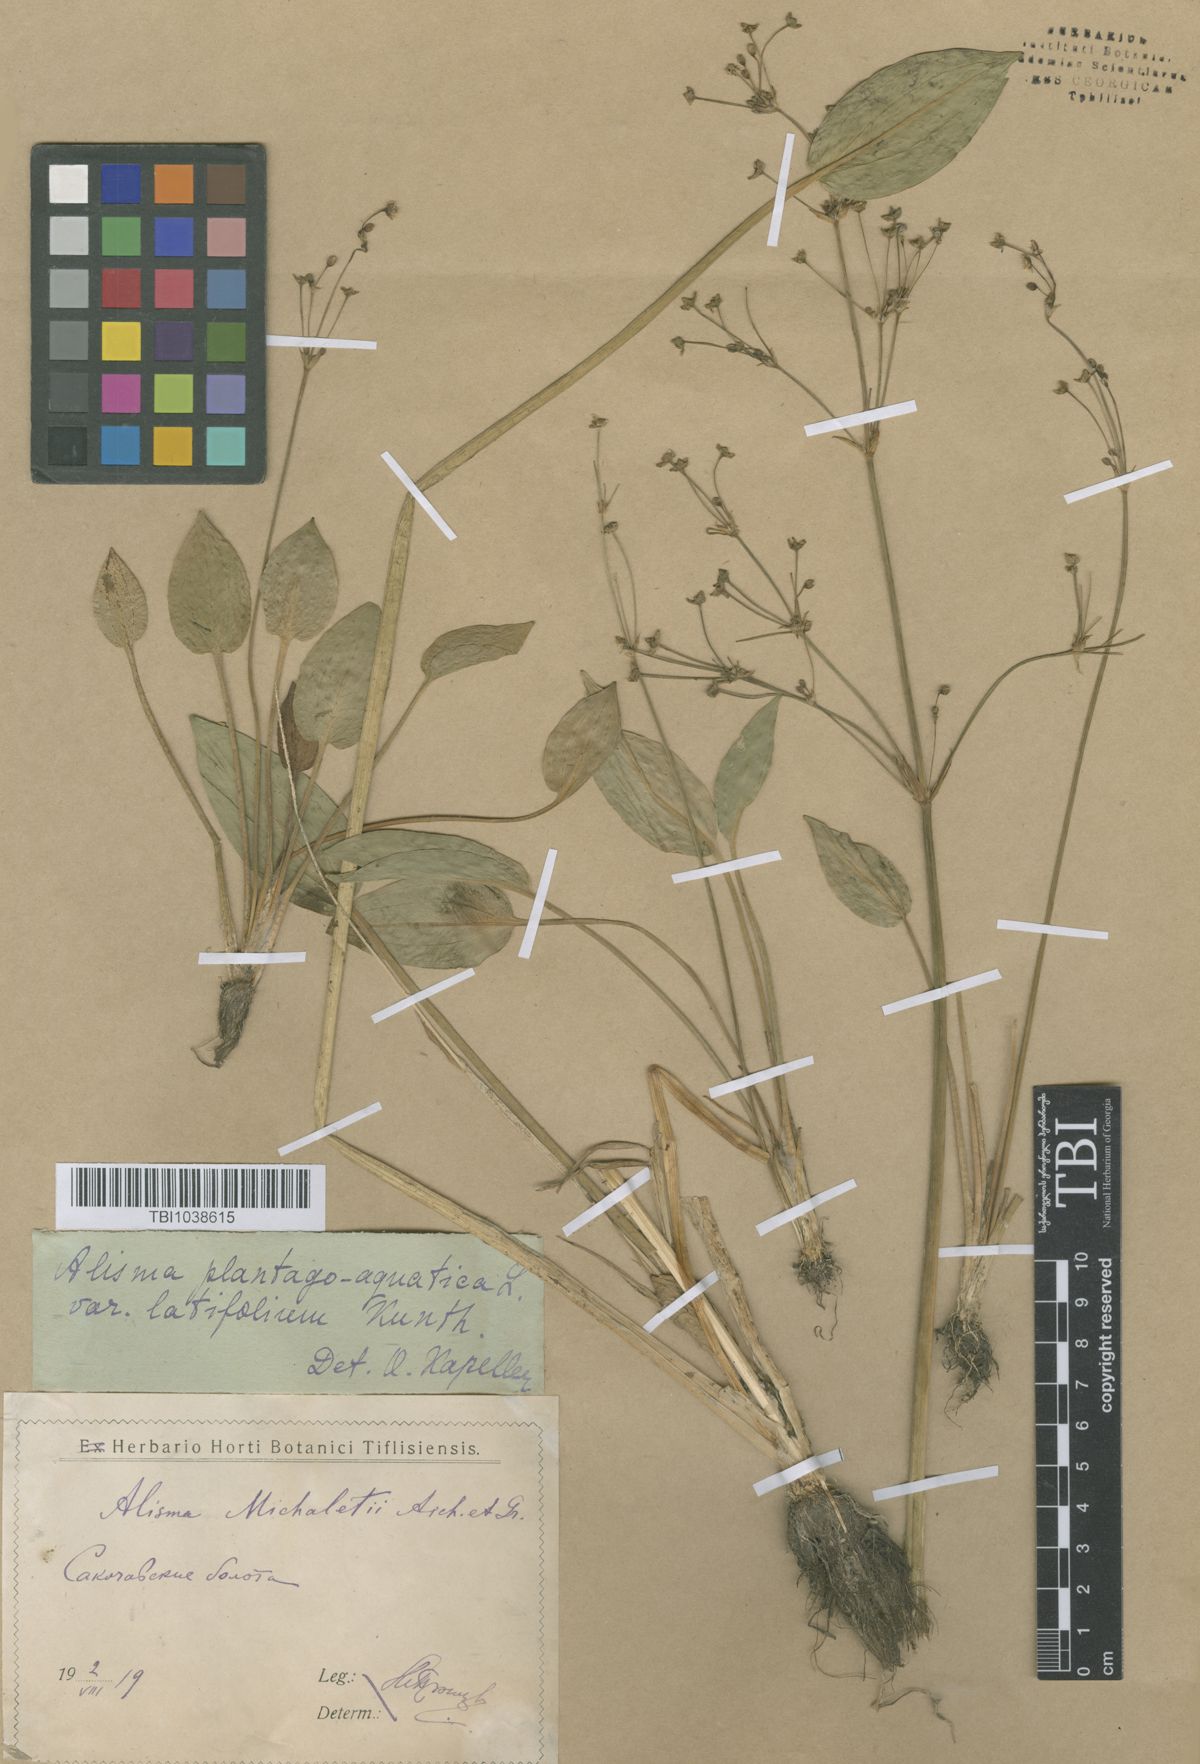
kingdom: Plantae
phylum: Tracheophyta
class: Liliopsida
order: Alismatales
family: Alismataceae
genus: Alisma
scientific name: Alisma plantago-aquatica
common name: Water-plantain
